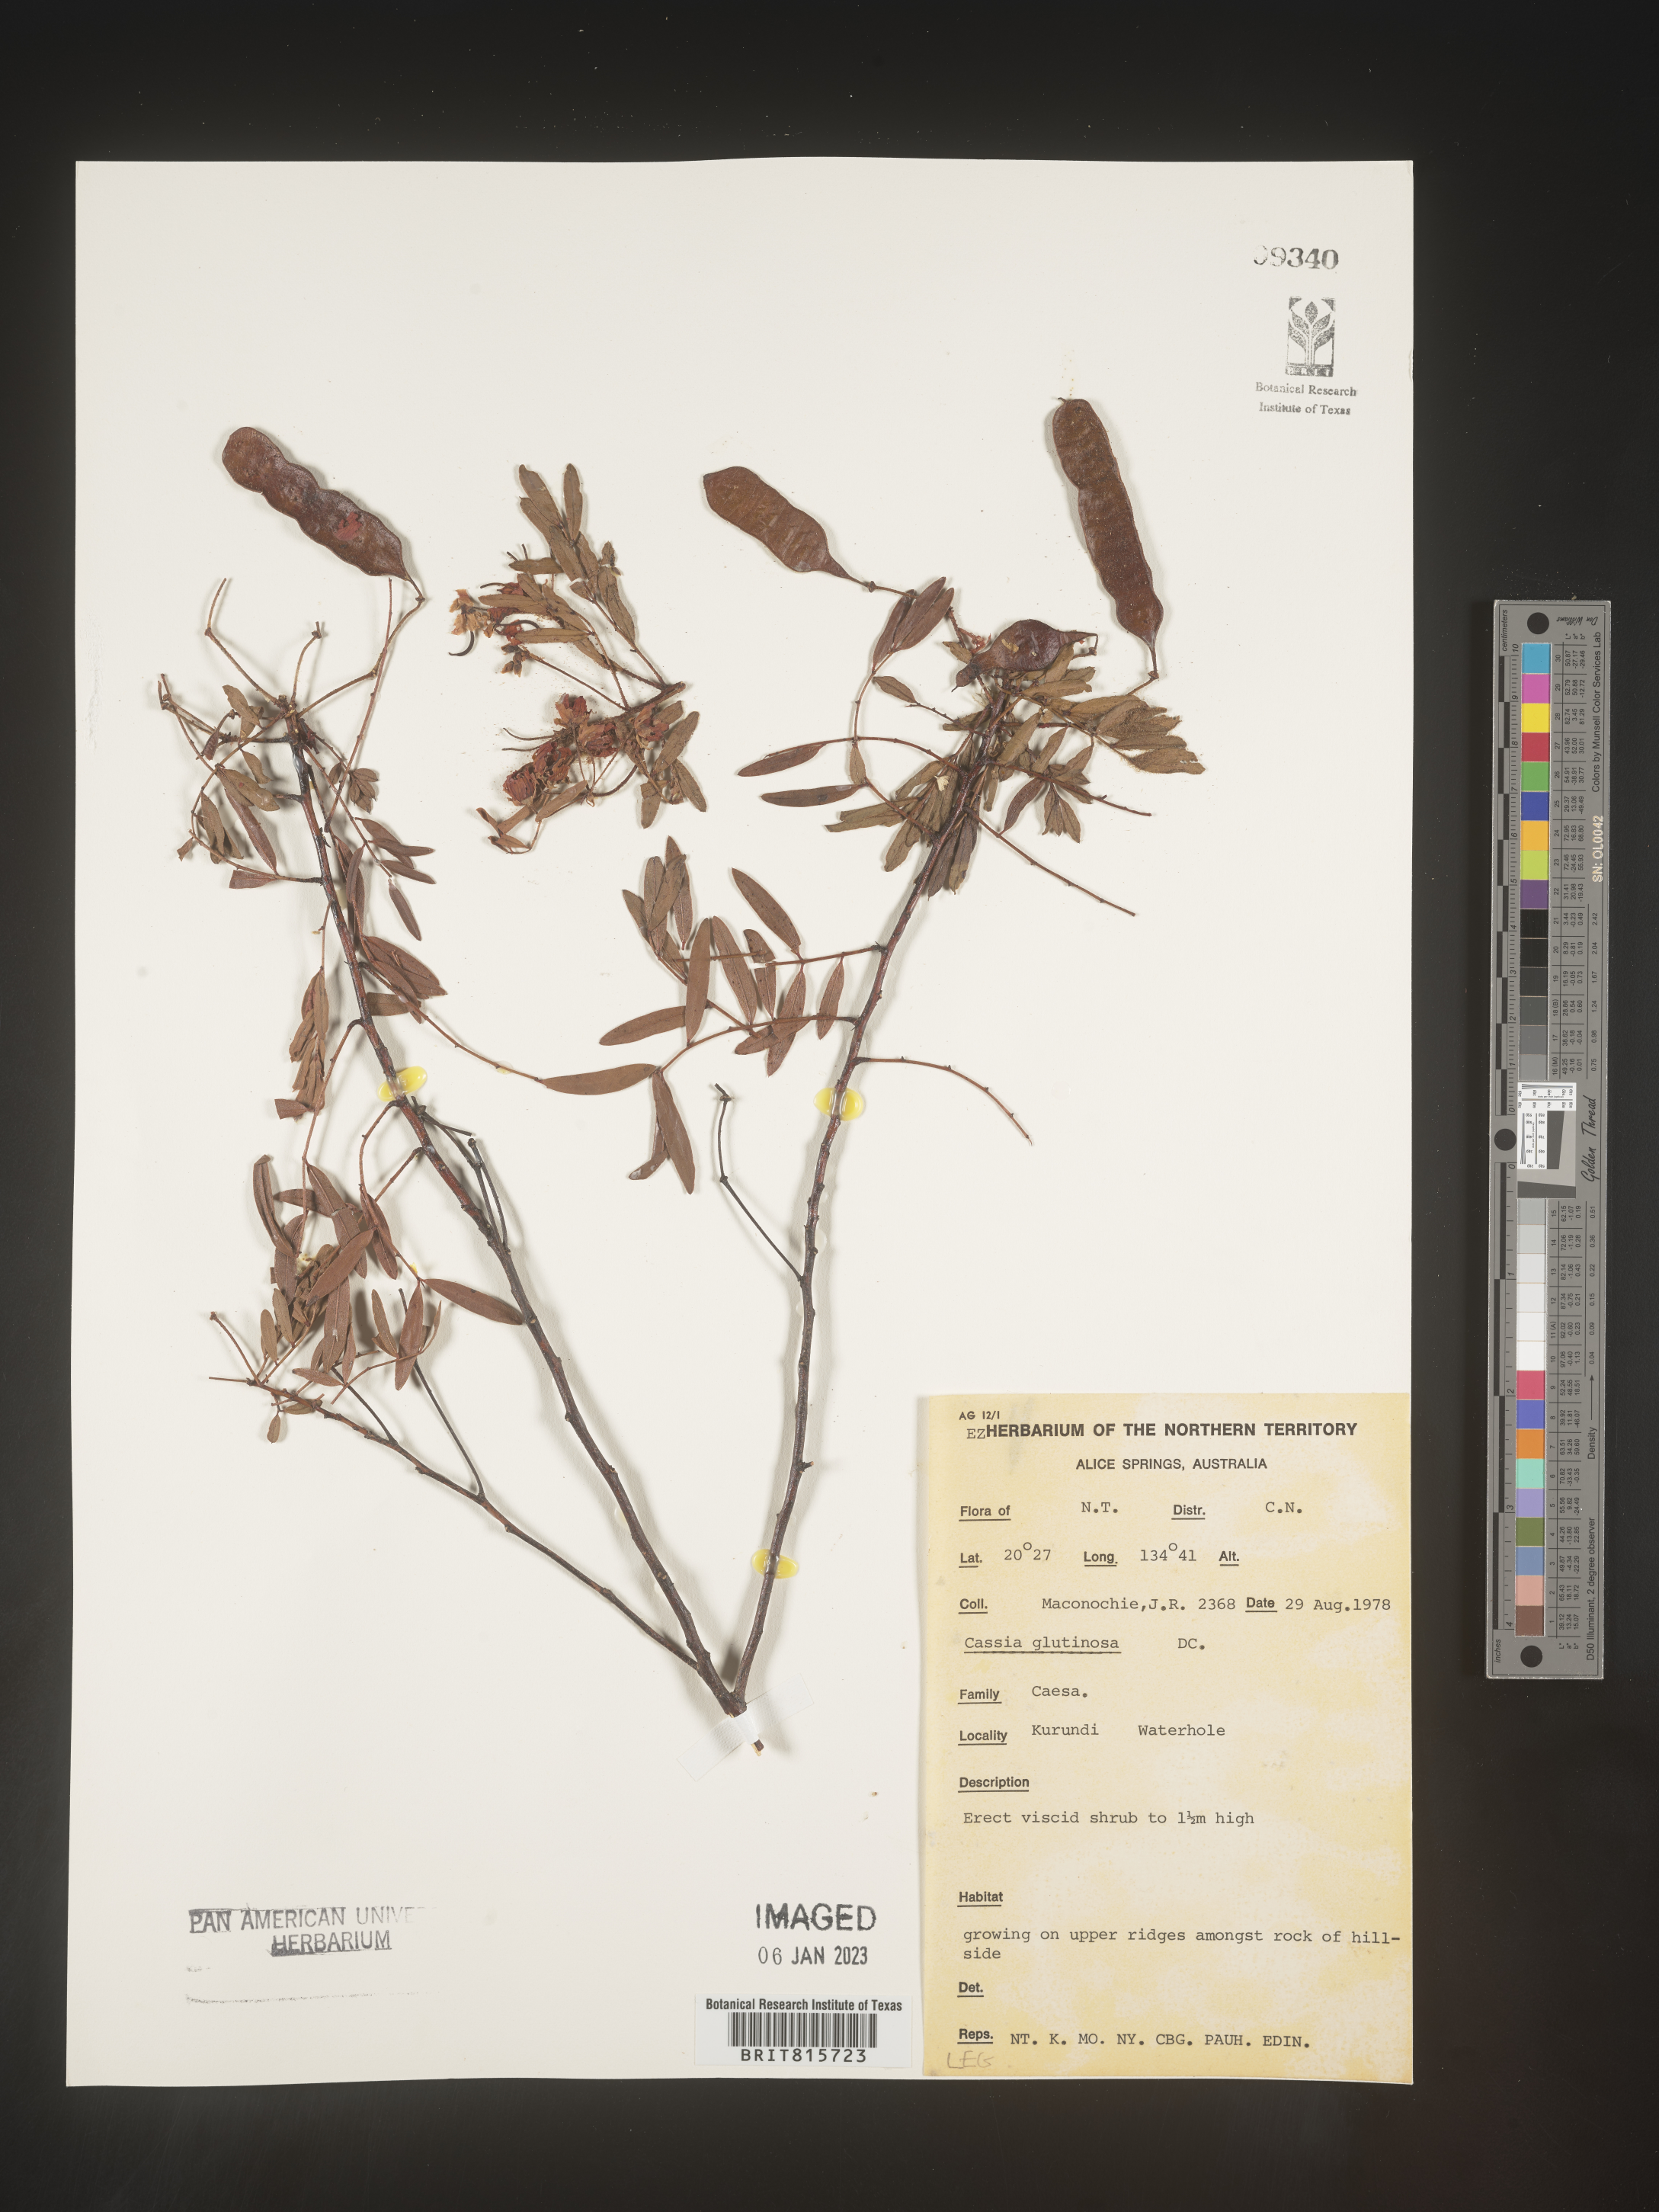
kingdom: Plantae
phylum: Tracheophyta
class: Magnoliopsida
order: Fabales
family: Fabaceae
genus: Cassia
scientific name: Cassia
